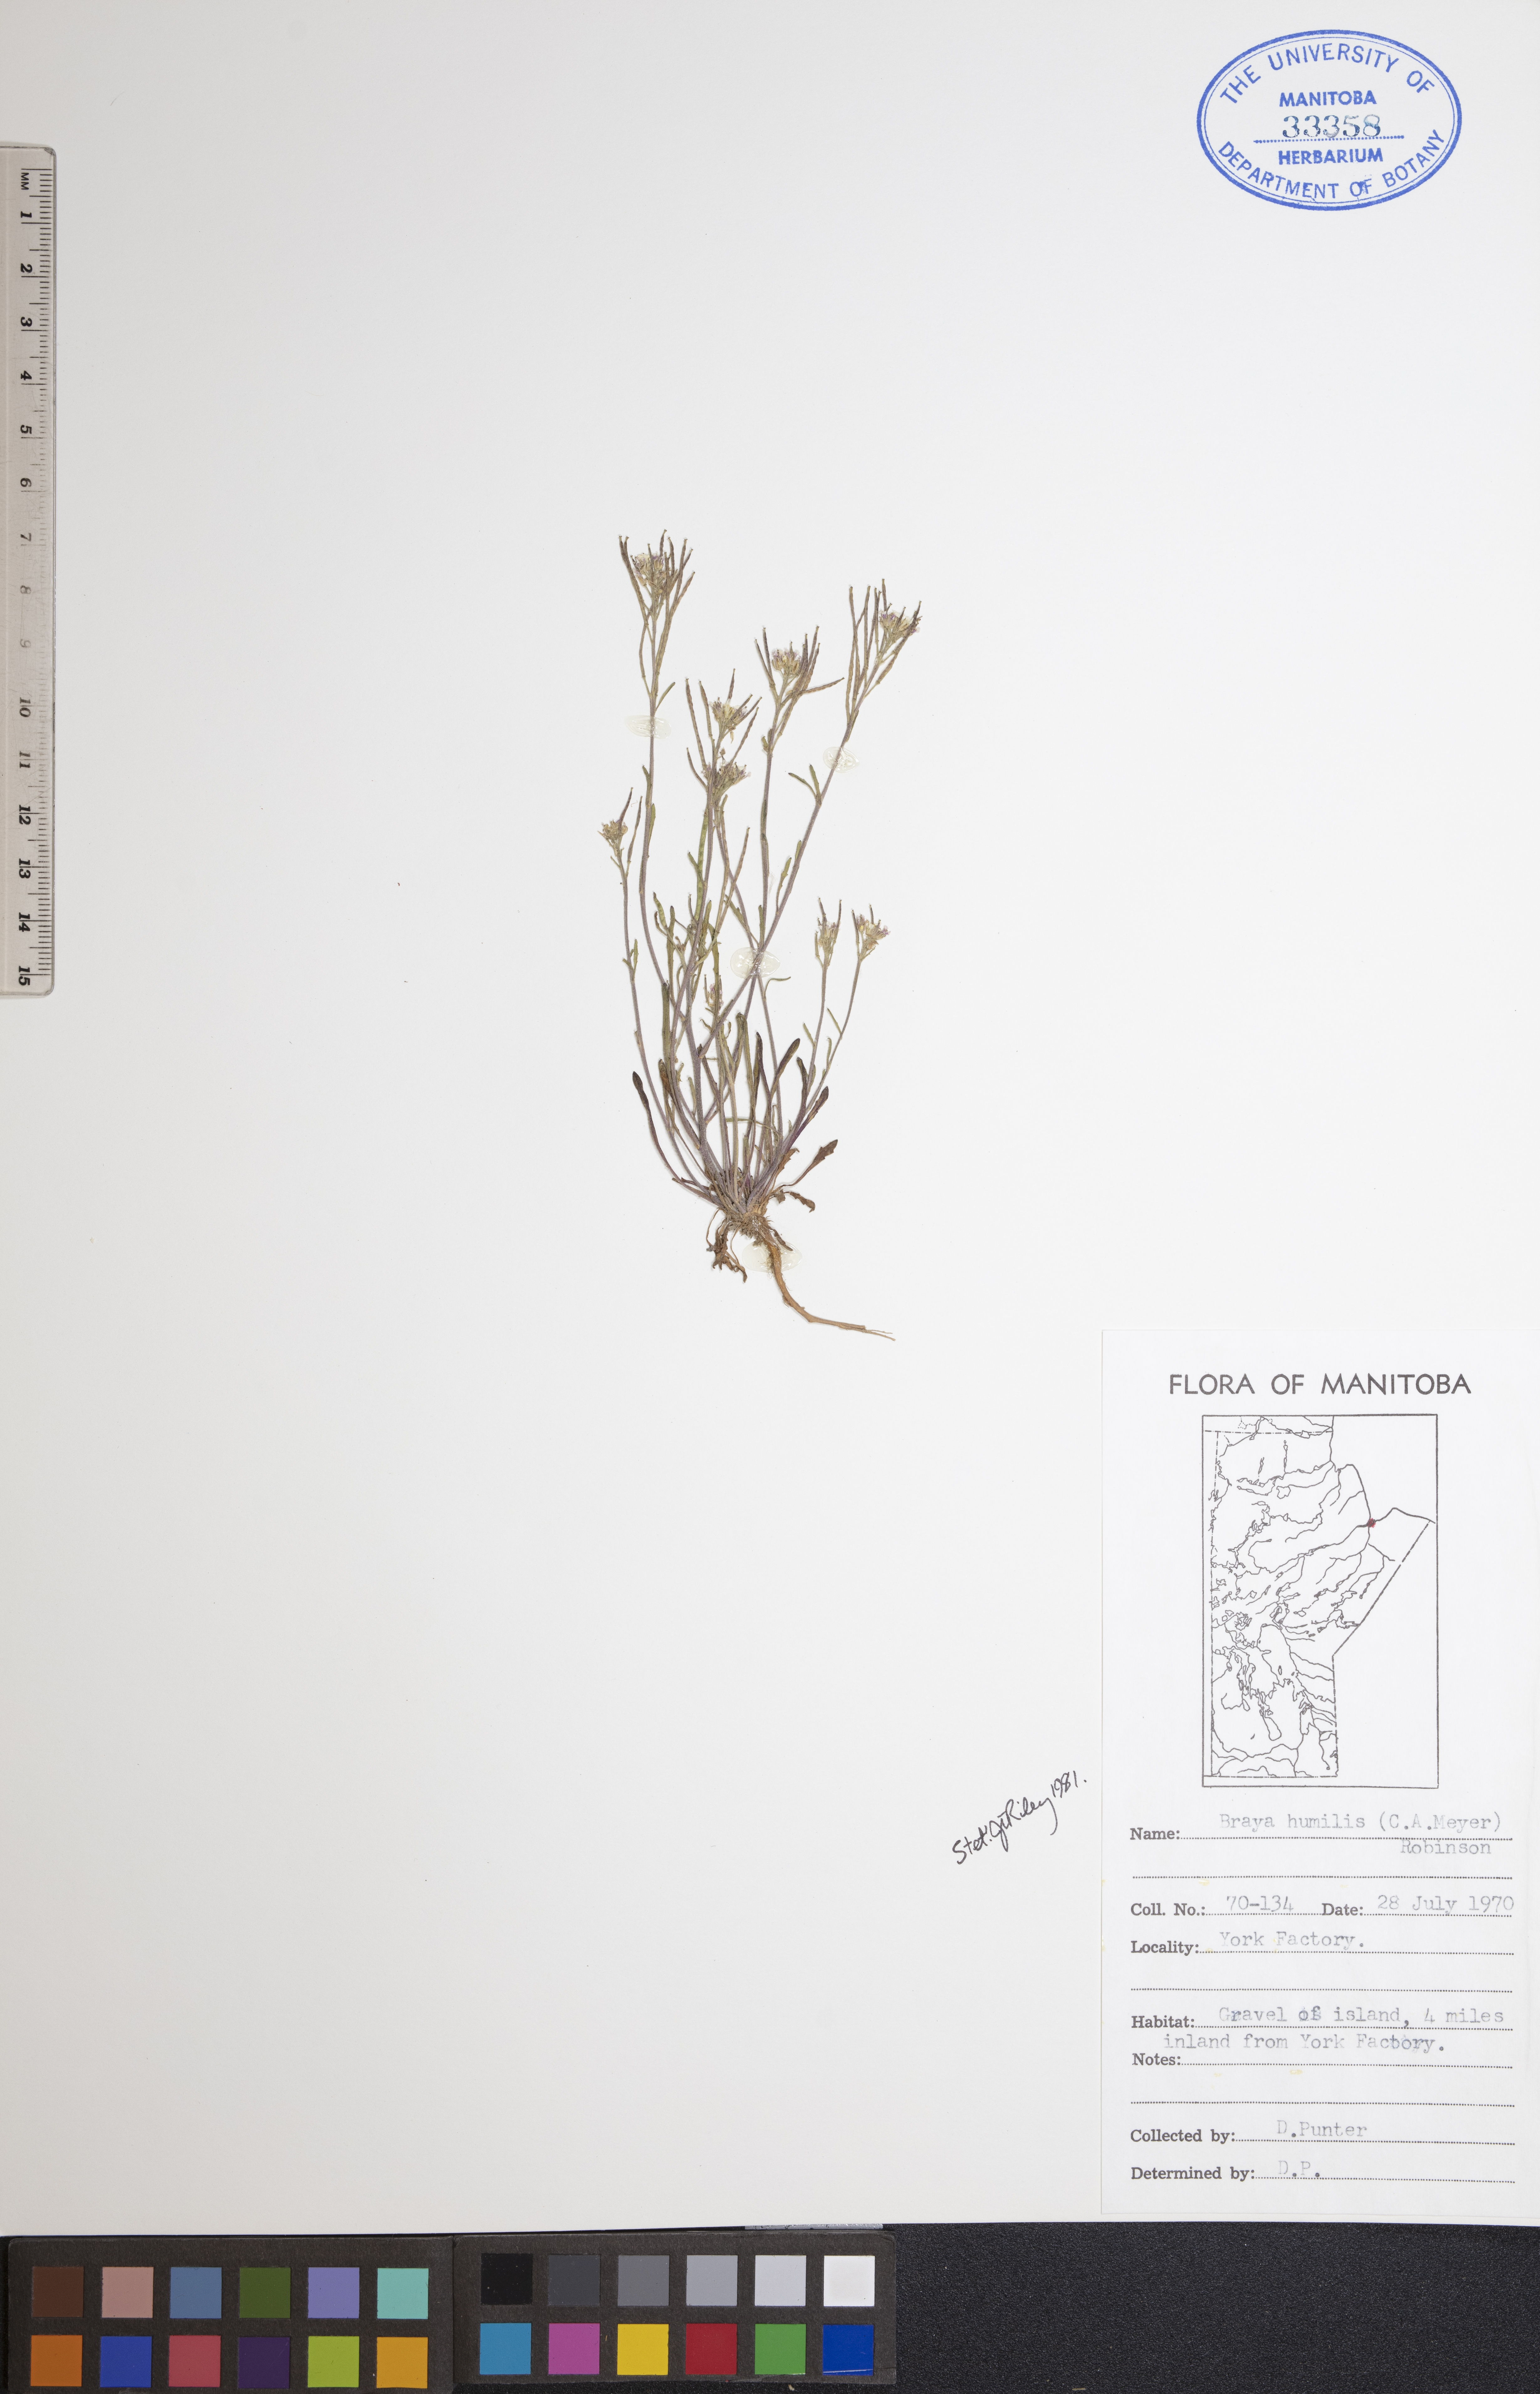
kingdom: Plantae
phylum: Tracheophyta
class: Magnoliopsida
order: Brassicales
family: Brassicaceae
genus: Braya
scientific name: Braya humilis
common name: Alpine northern rockcress
